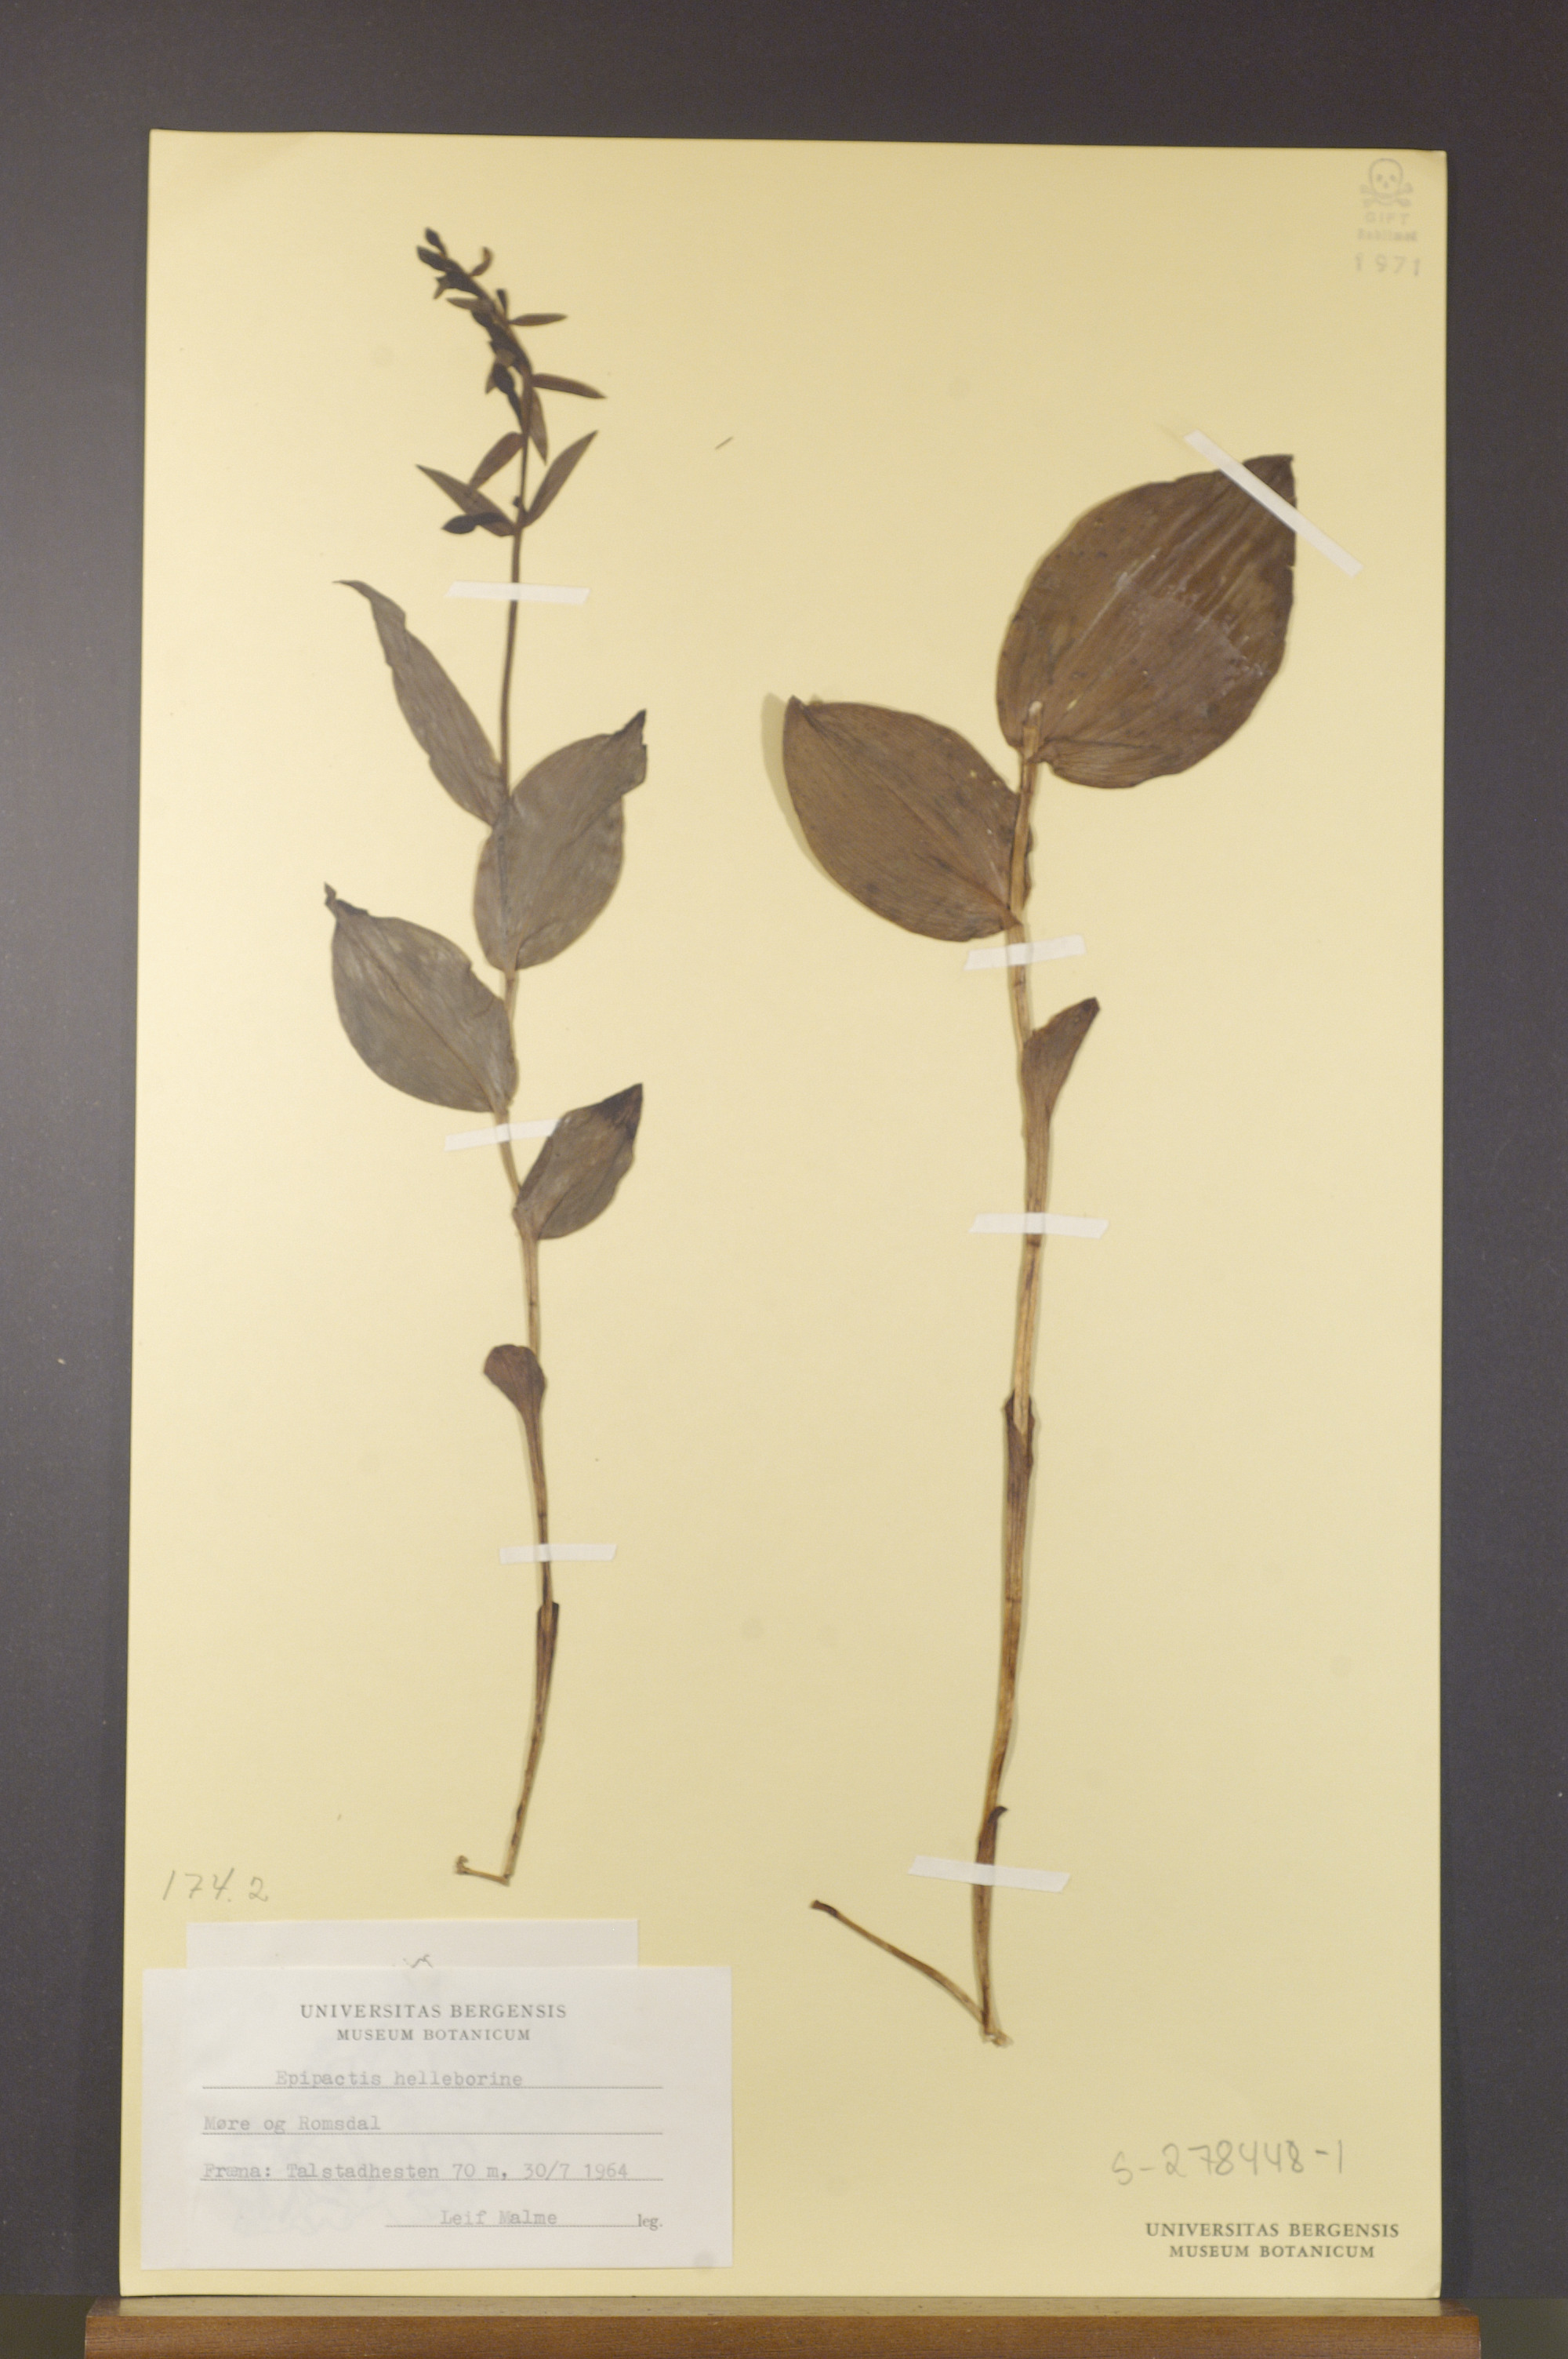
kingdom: Plantae
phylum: Tracheophyta
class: Liliopsida
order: Asparagales
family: Orchidaceae
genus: Epipactis
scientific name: Epipactis helleborine
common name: Broad-leaved helleborine
